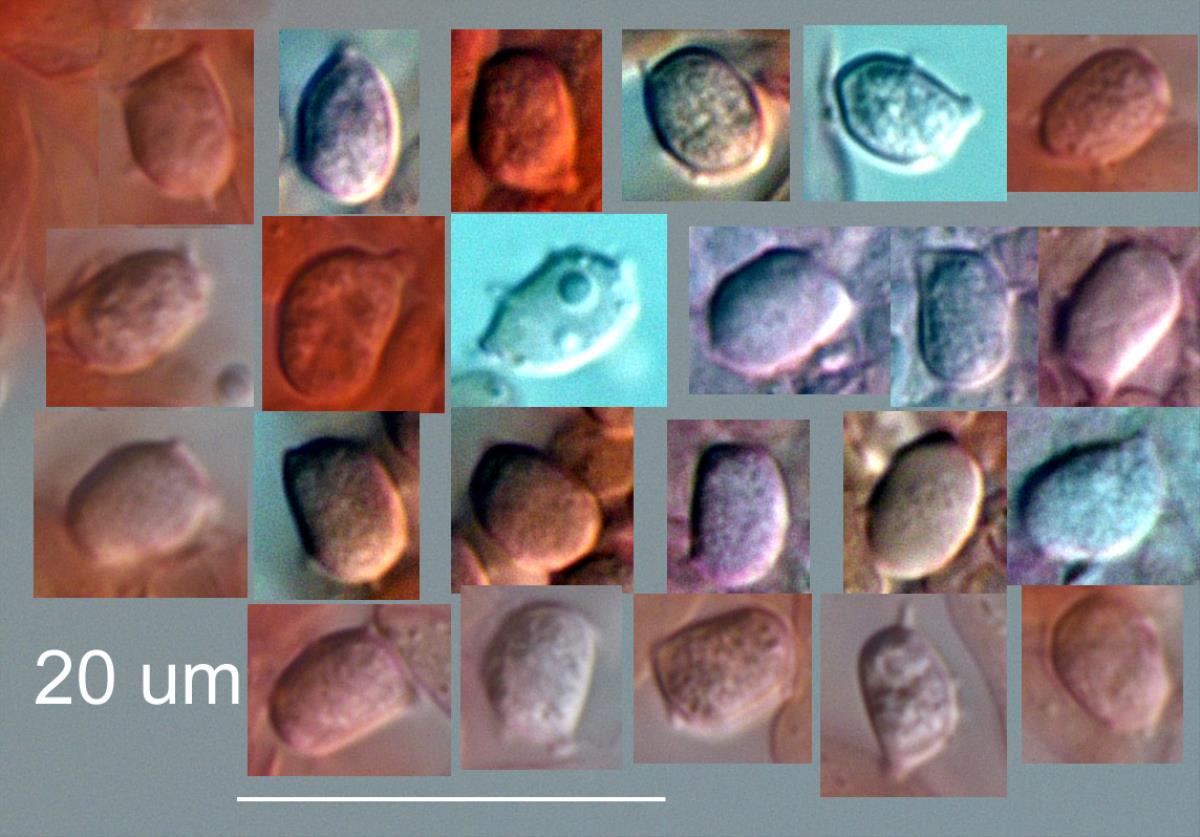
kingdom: Fungi
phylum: Basidiomycota
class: Agaricomycetes
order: Agaricales
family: Clavariaceae
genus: Clavaria
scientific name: Clavaria echinobrevispora
